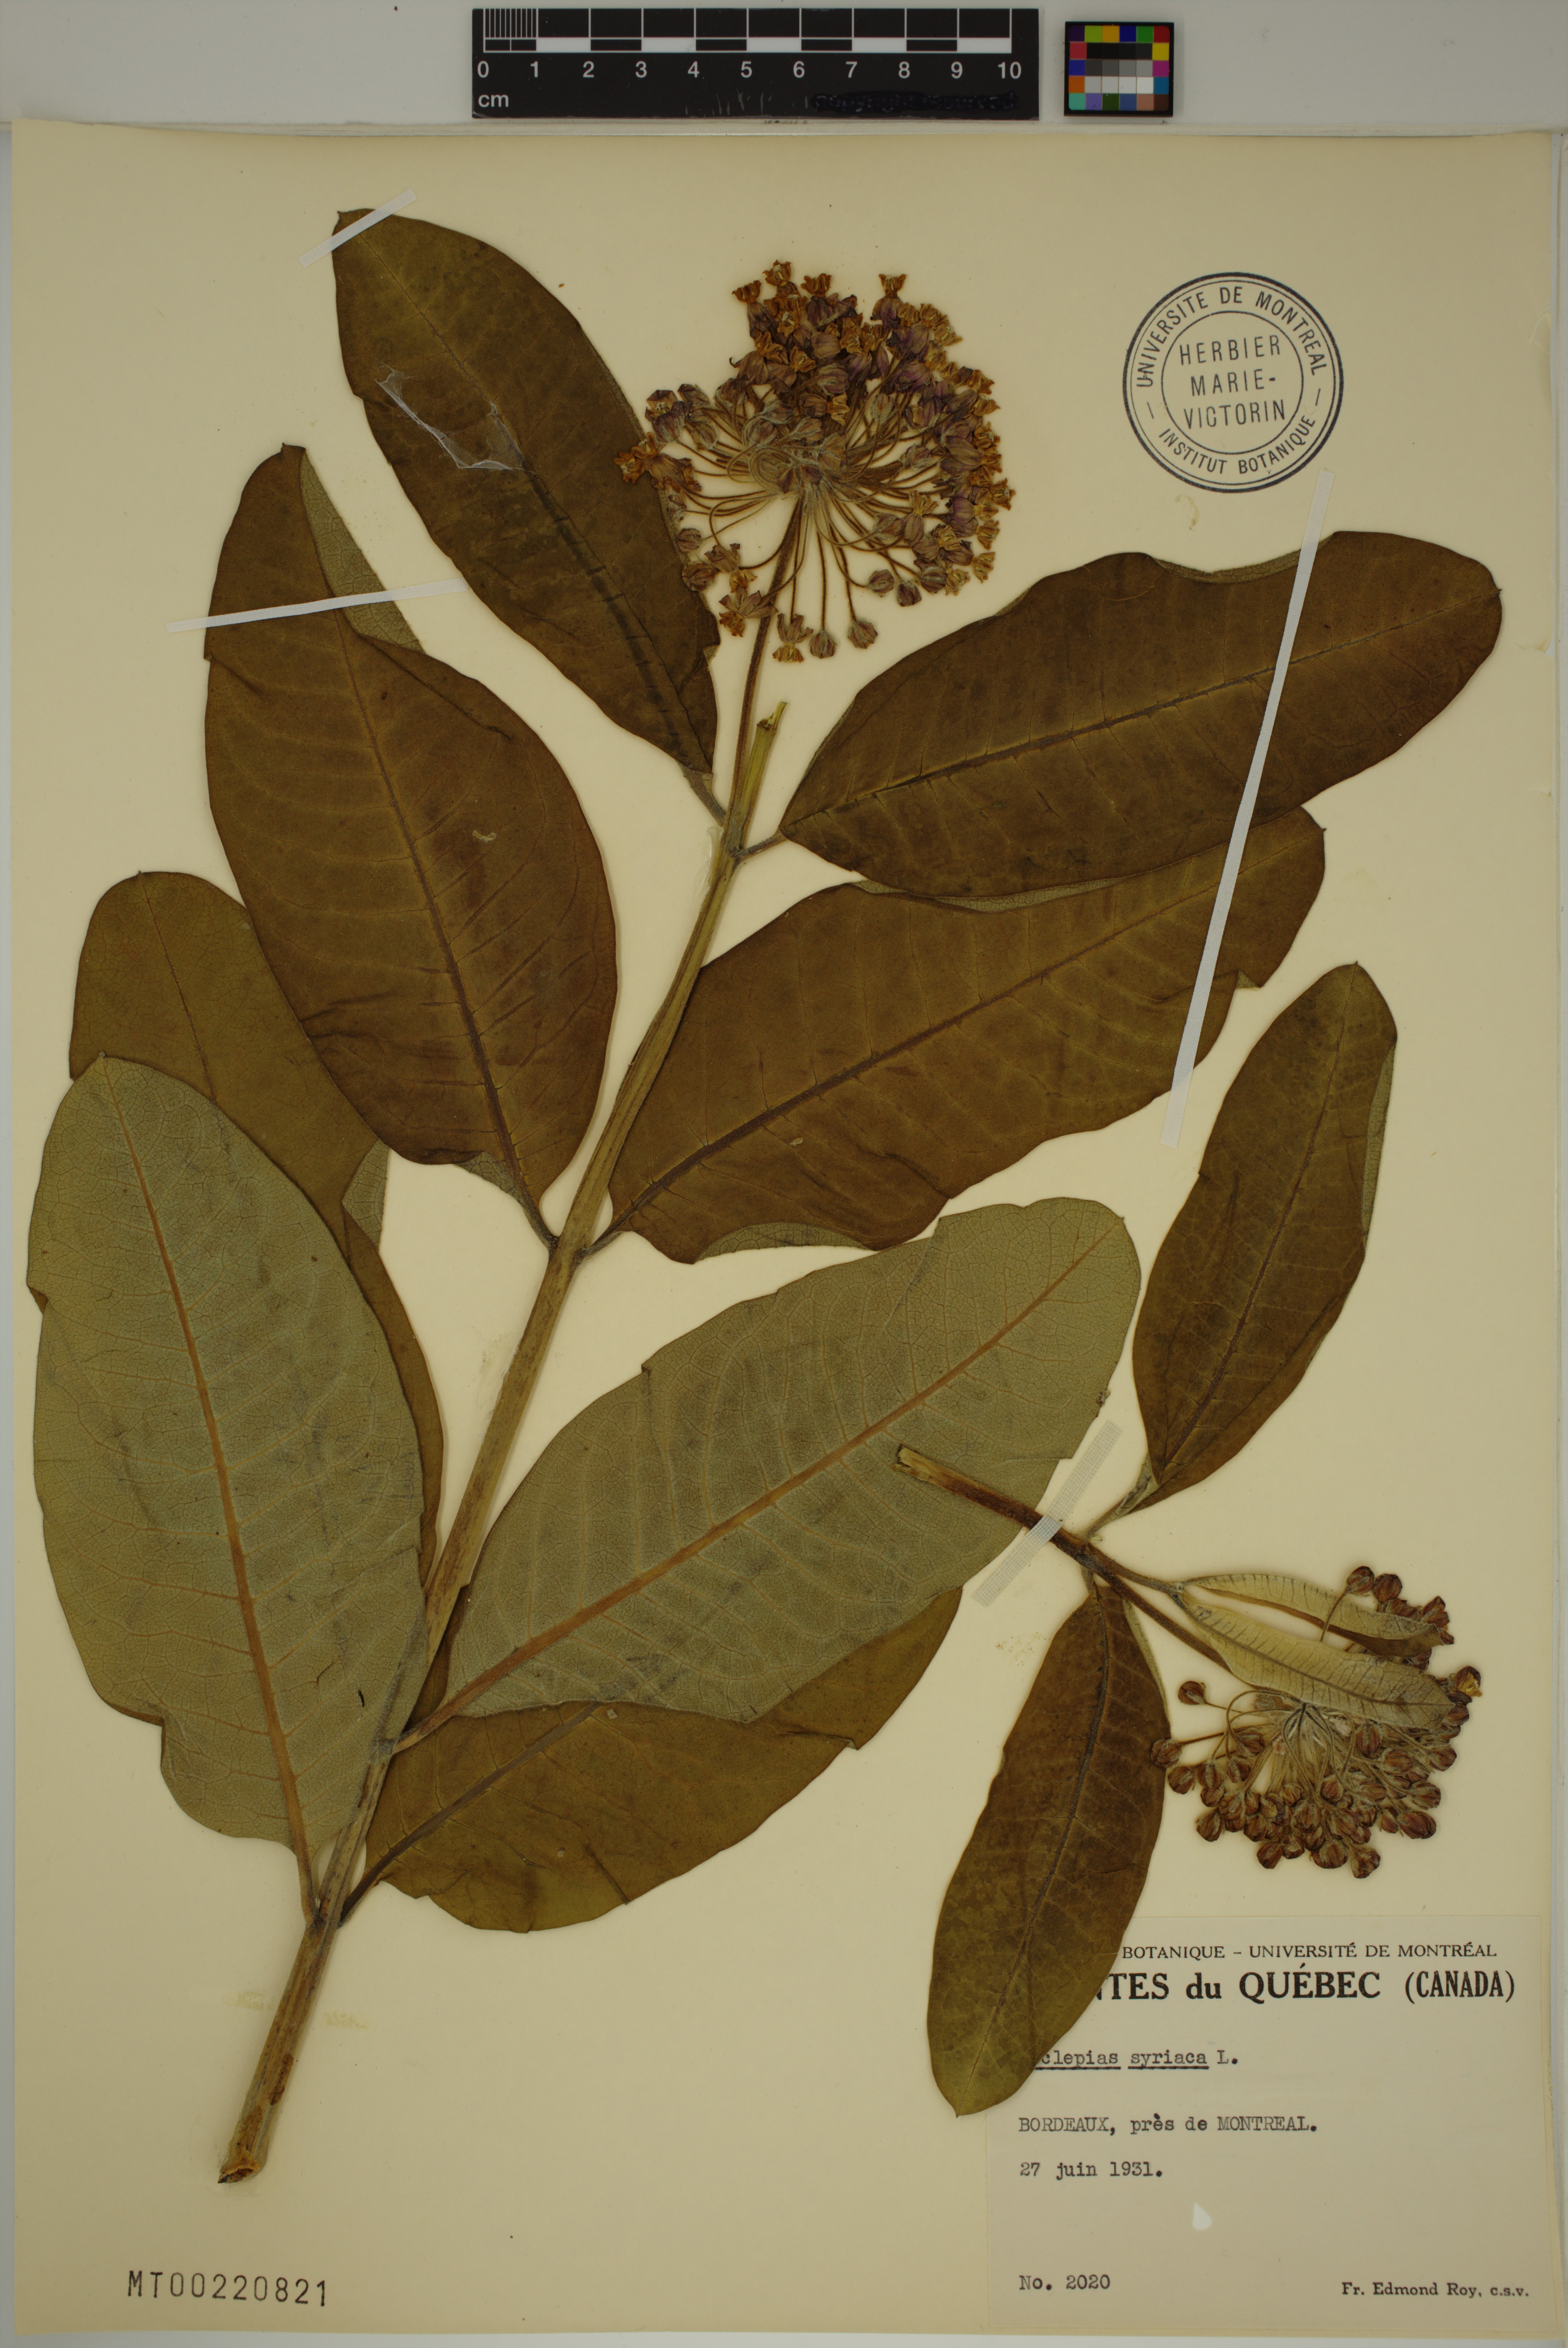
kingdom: Plantae
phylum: Tracheophyta
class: Magnoliopsida
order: Gentianales
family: Apocynaceae
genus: Asclepias
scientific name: Asclepias syriaca
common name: Common milkweed
